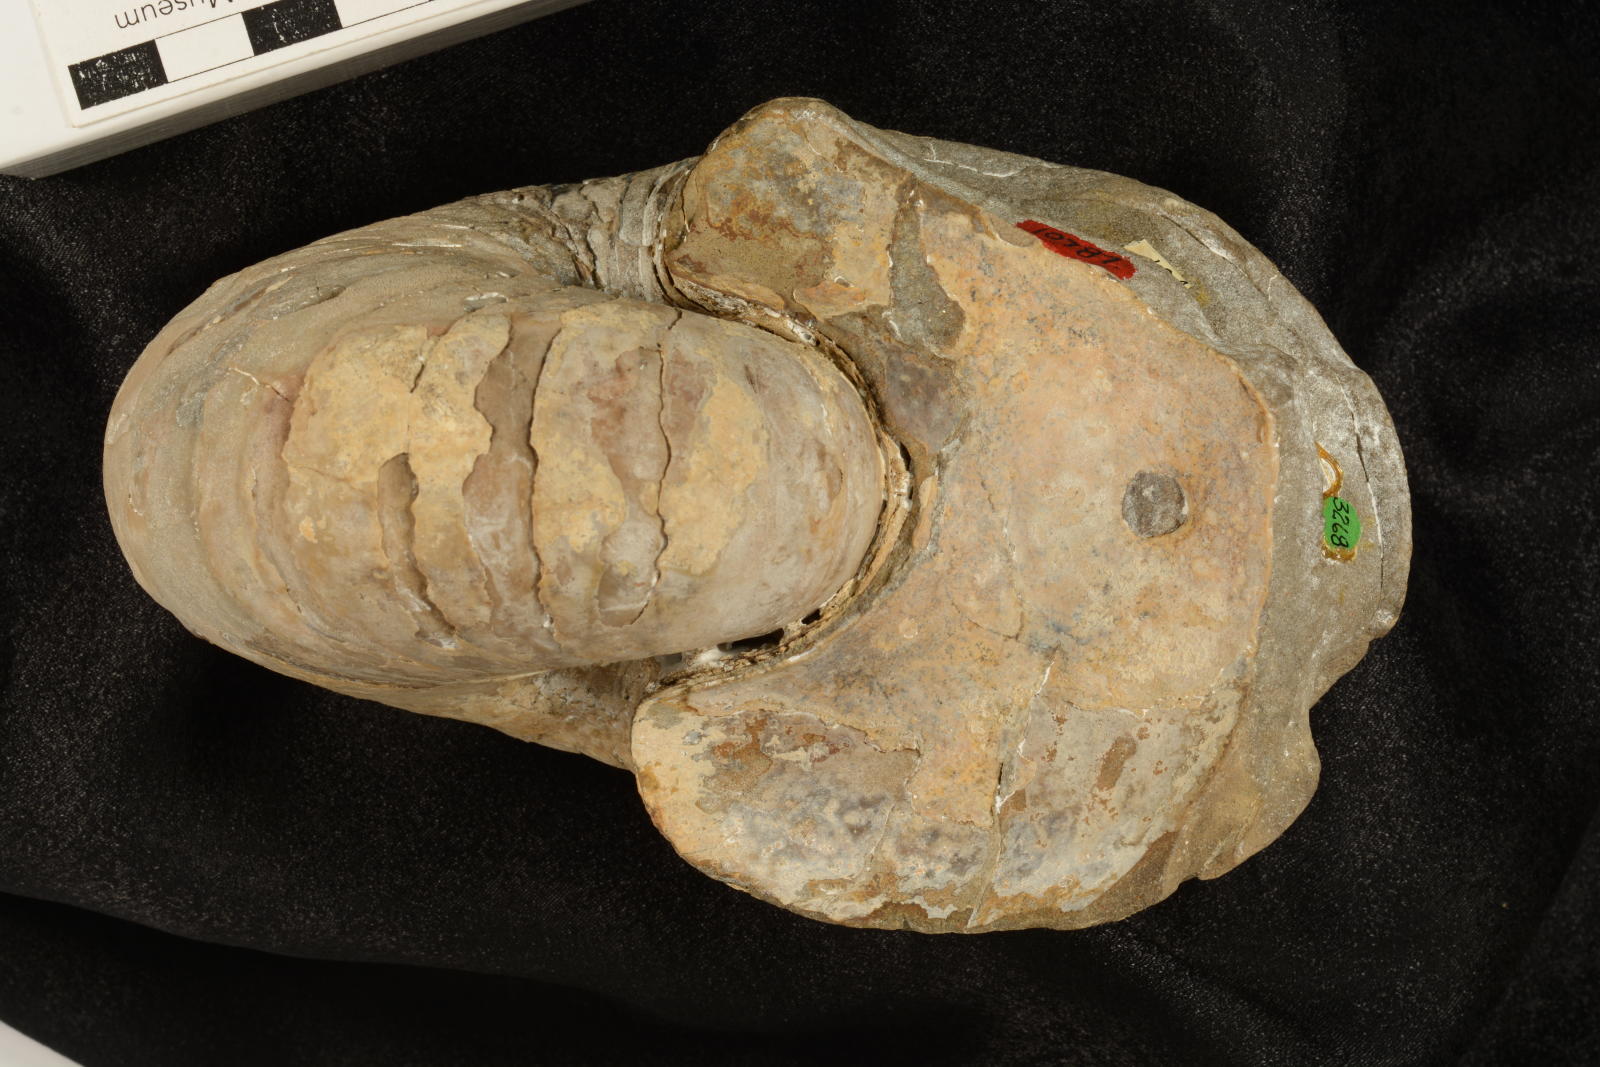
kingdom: Animalia
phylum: Mollusca
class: Cephalopoda
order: Nautilida
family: Cymatoceratidae
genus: Anglonautilus
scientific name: Anglonautilus catarinae
